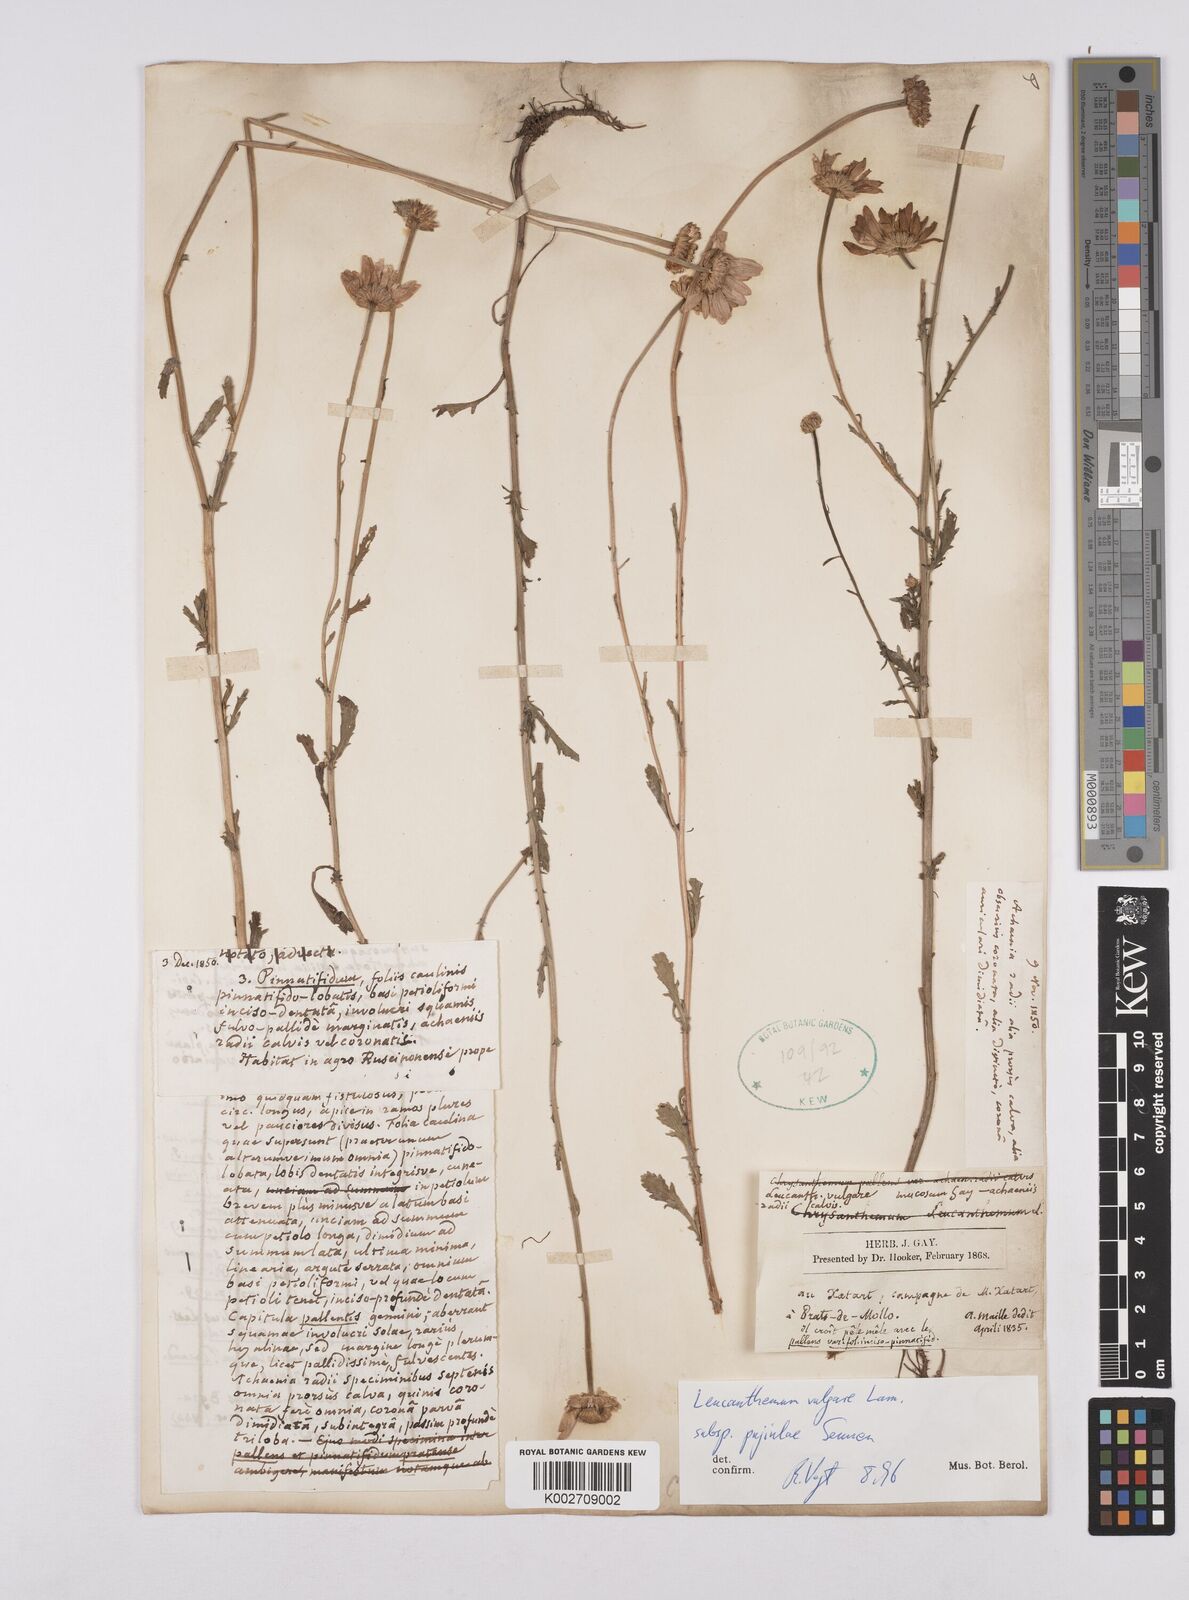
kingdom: Plantae
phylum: Tracheophyta
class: Magnoliopsida
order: Asterales
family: Asteraceae
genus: Leucanthemum
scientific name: Leucanthemum vulgare
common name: Oxeye daisy
